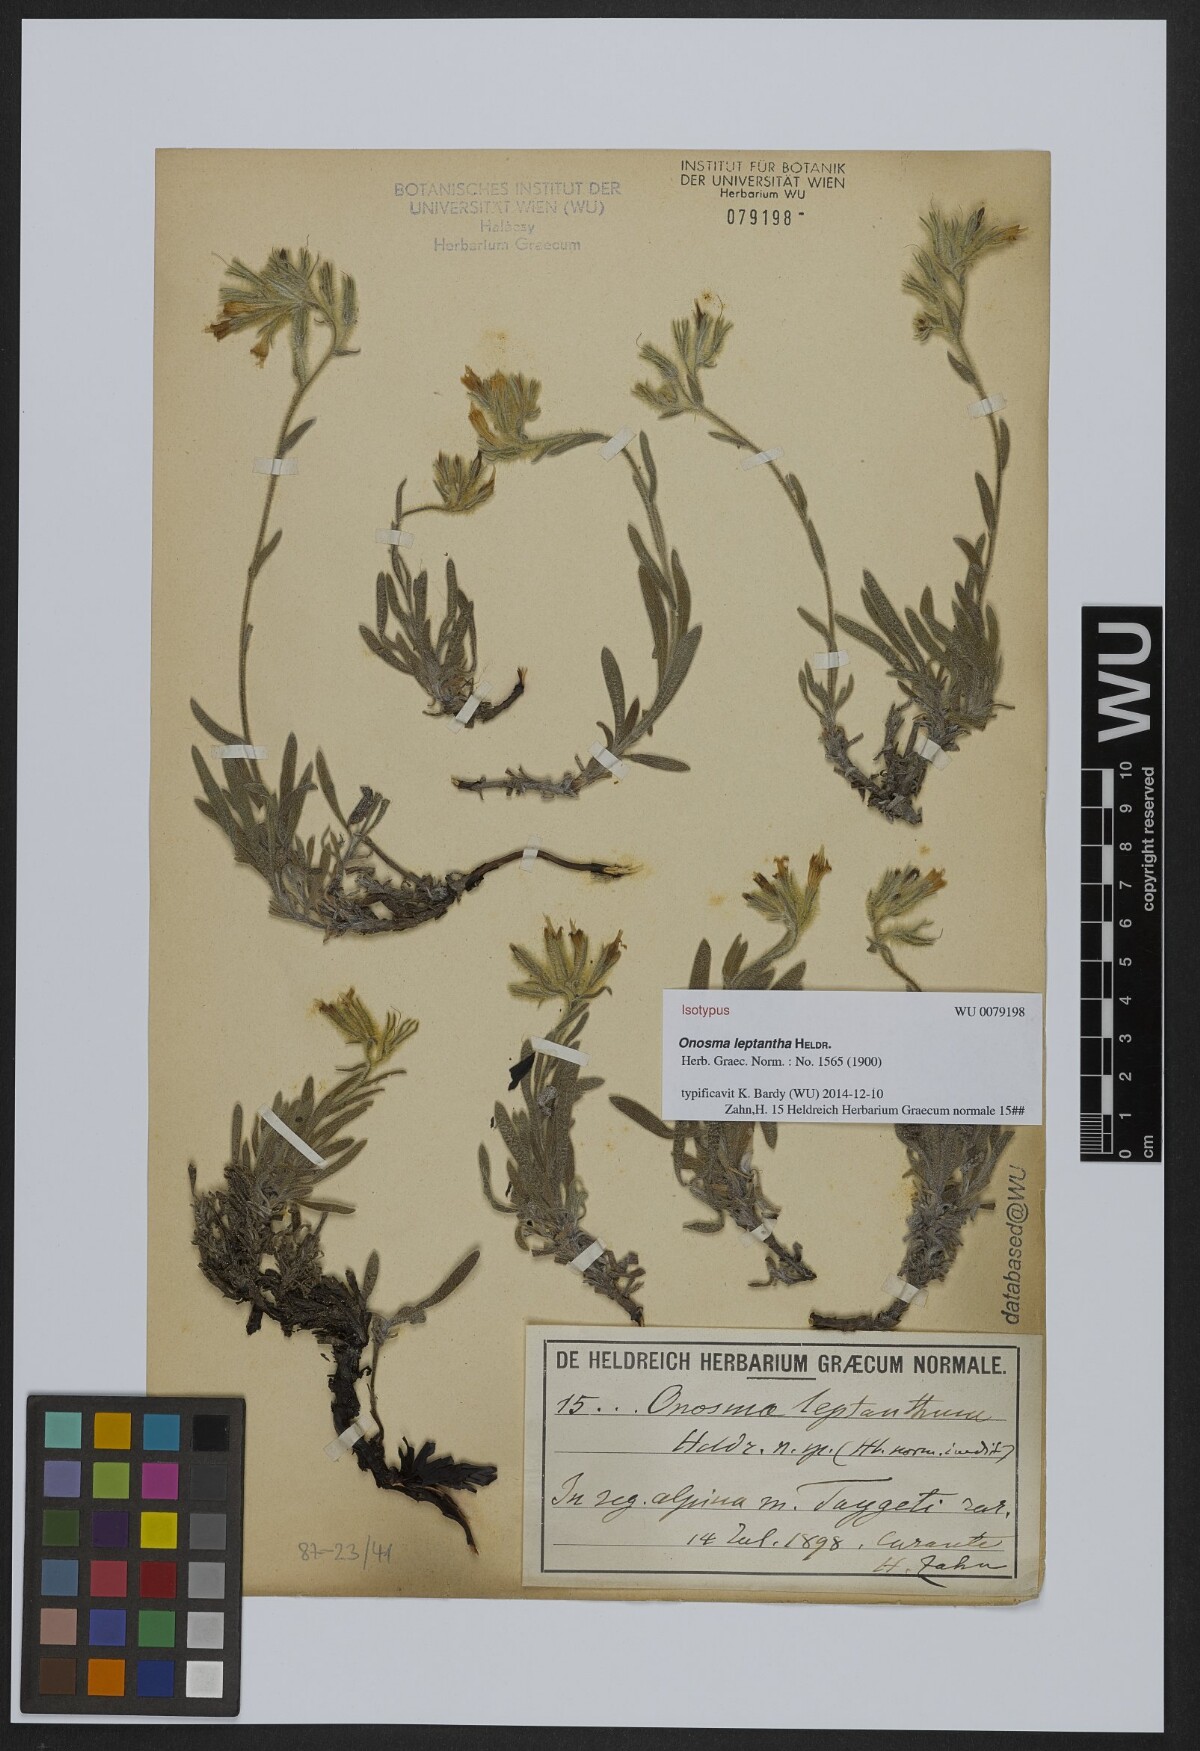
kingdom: Plantae
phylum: Tracheophyta
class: Magnoliopsida
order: Boraginales
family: Boraginaceae
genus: Onosma
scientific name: Onosma leptantha
